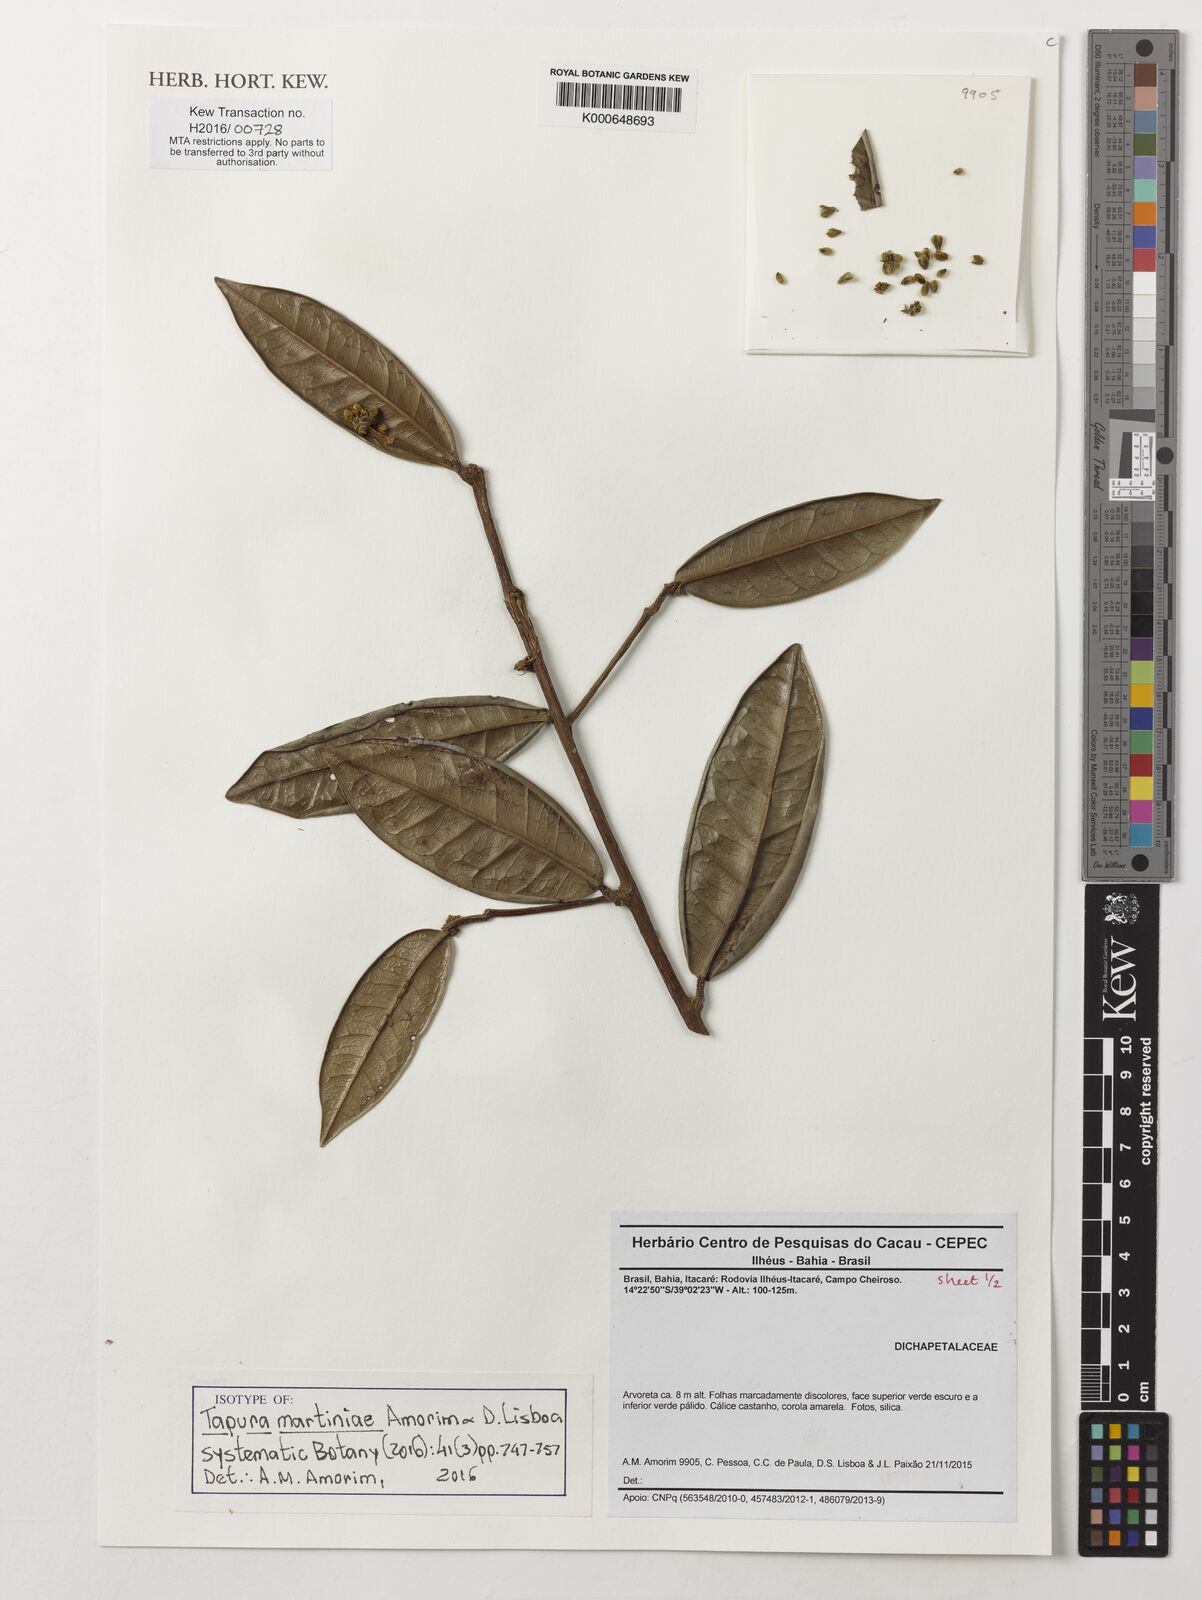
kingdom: Plantae
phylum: Tracheophyta
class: Magnoliopsida
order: Malpighiales
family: Dichapetalaceae
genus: Tapura
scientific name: Tapura martiniae
